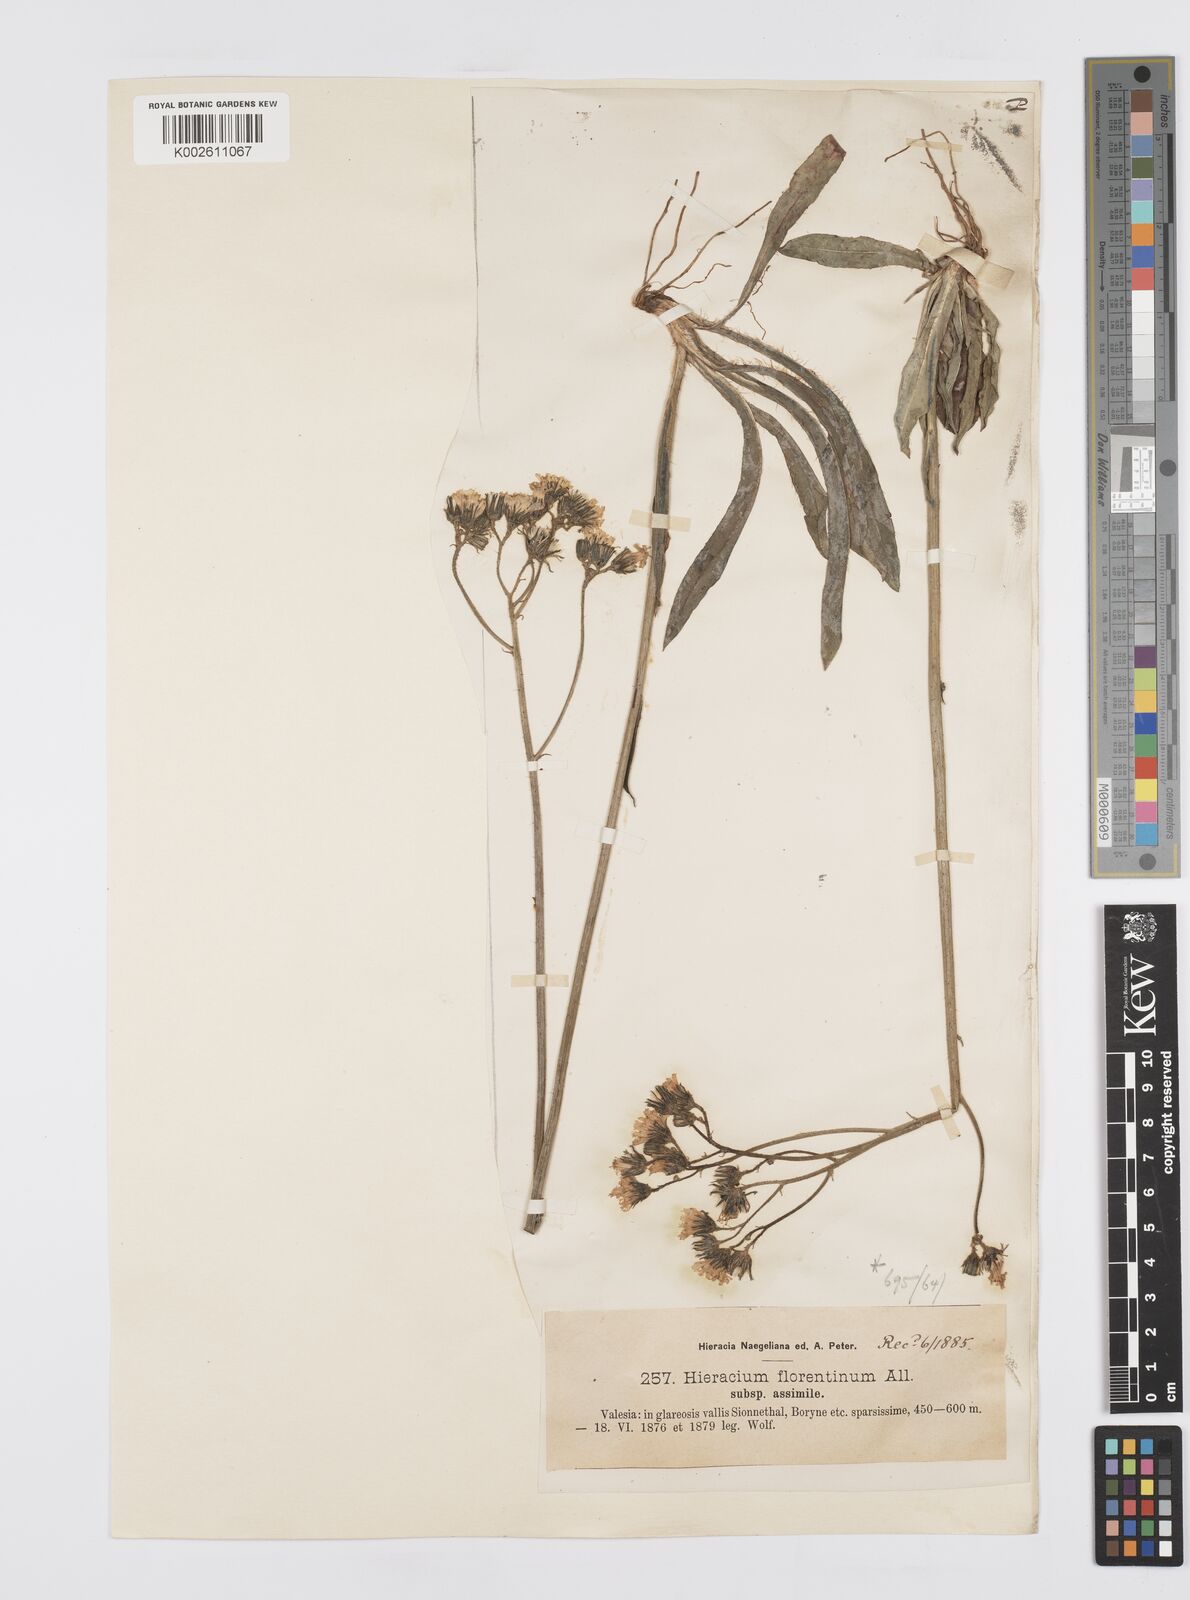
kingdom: Plantae
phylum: Tracheophyta
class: Magnoliopsida
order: Asterales
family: Asteraceae
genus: Pilosella
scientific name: Pilosella piloselloides
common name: Glaucous king-devil
